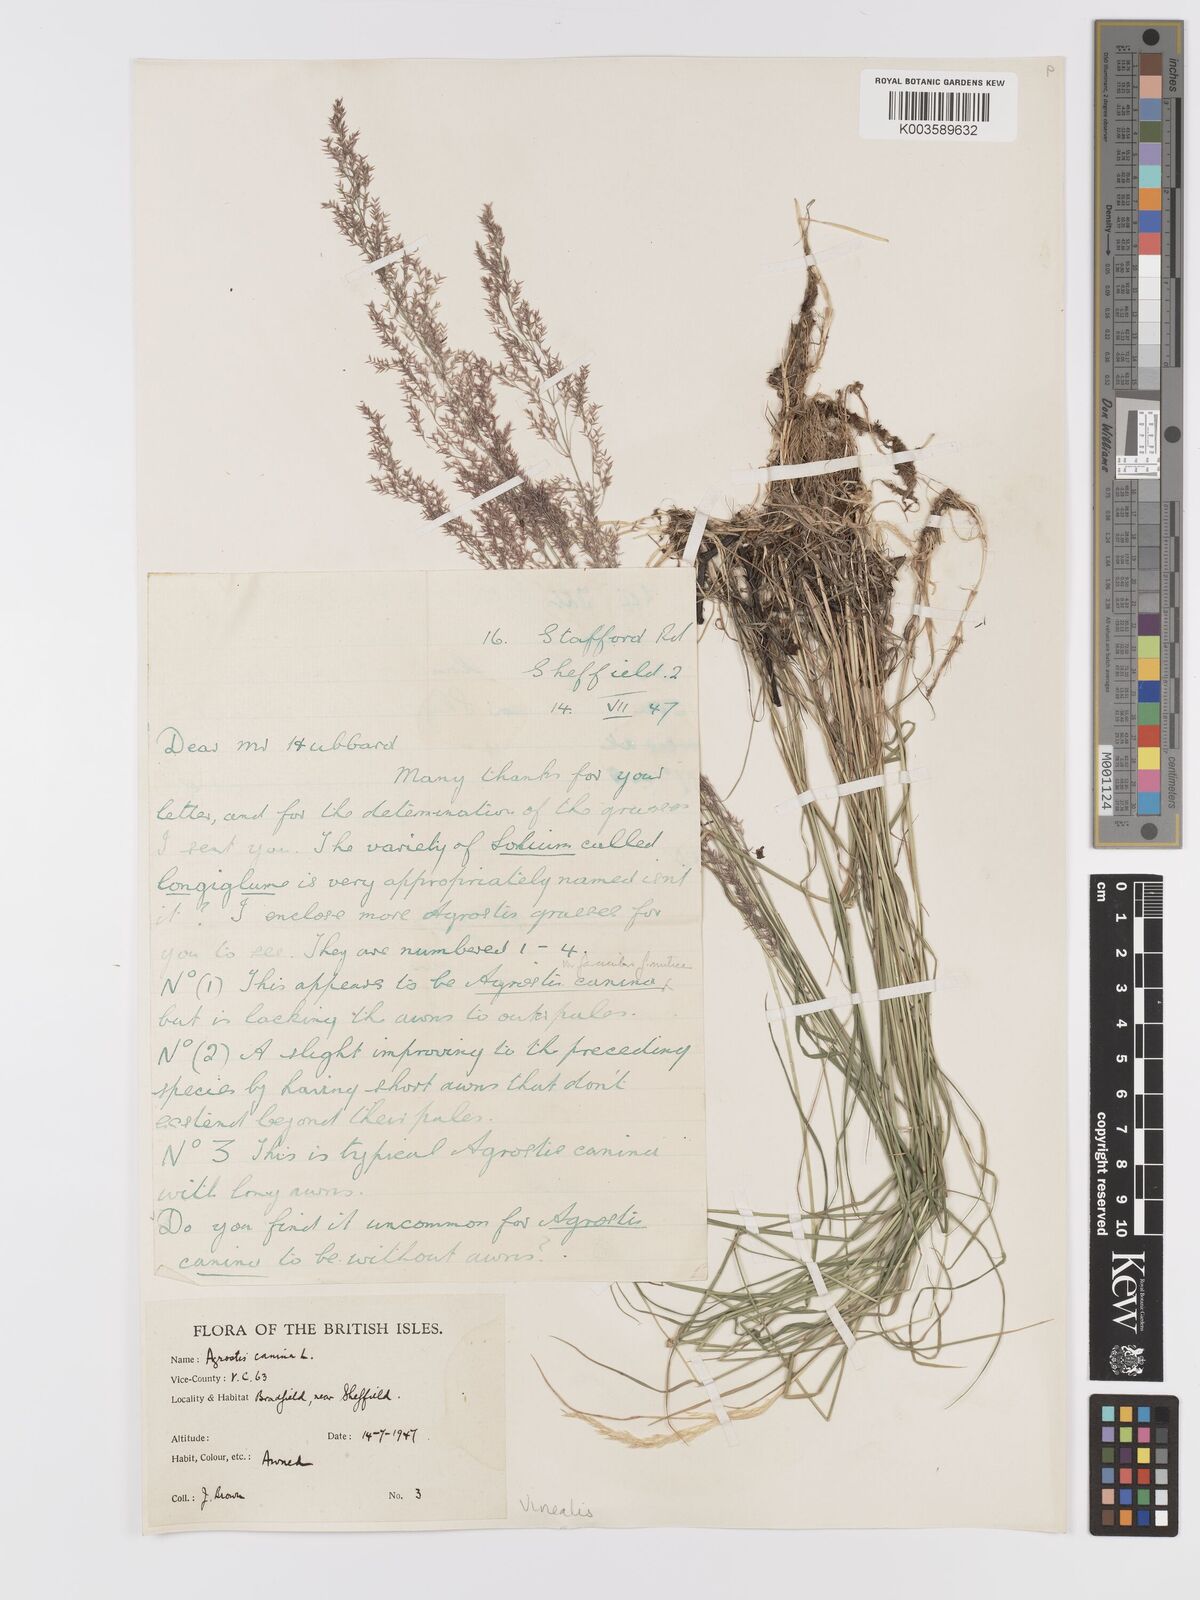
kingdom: Plantae
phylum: Tracheophyta
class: Liliopsida
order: Poales
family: Poaceae
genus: Agrostis
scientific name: Agrostis
